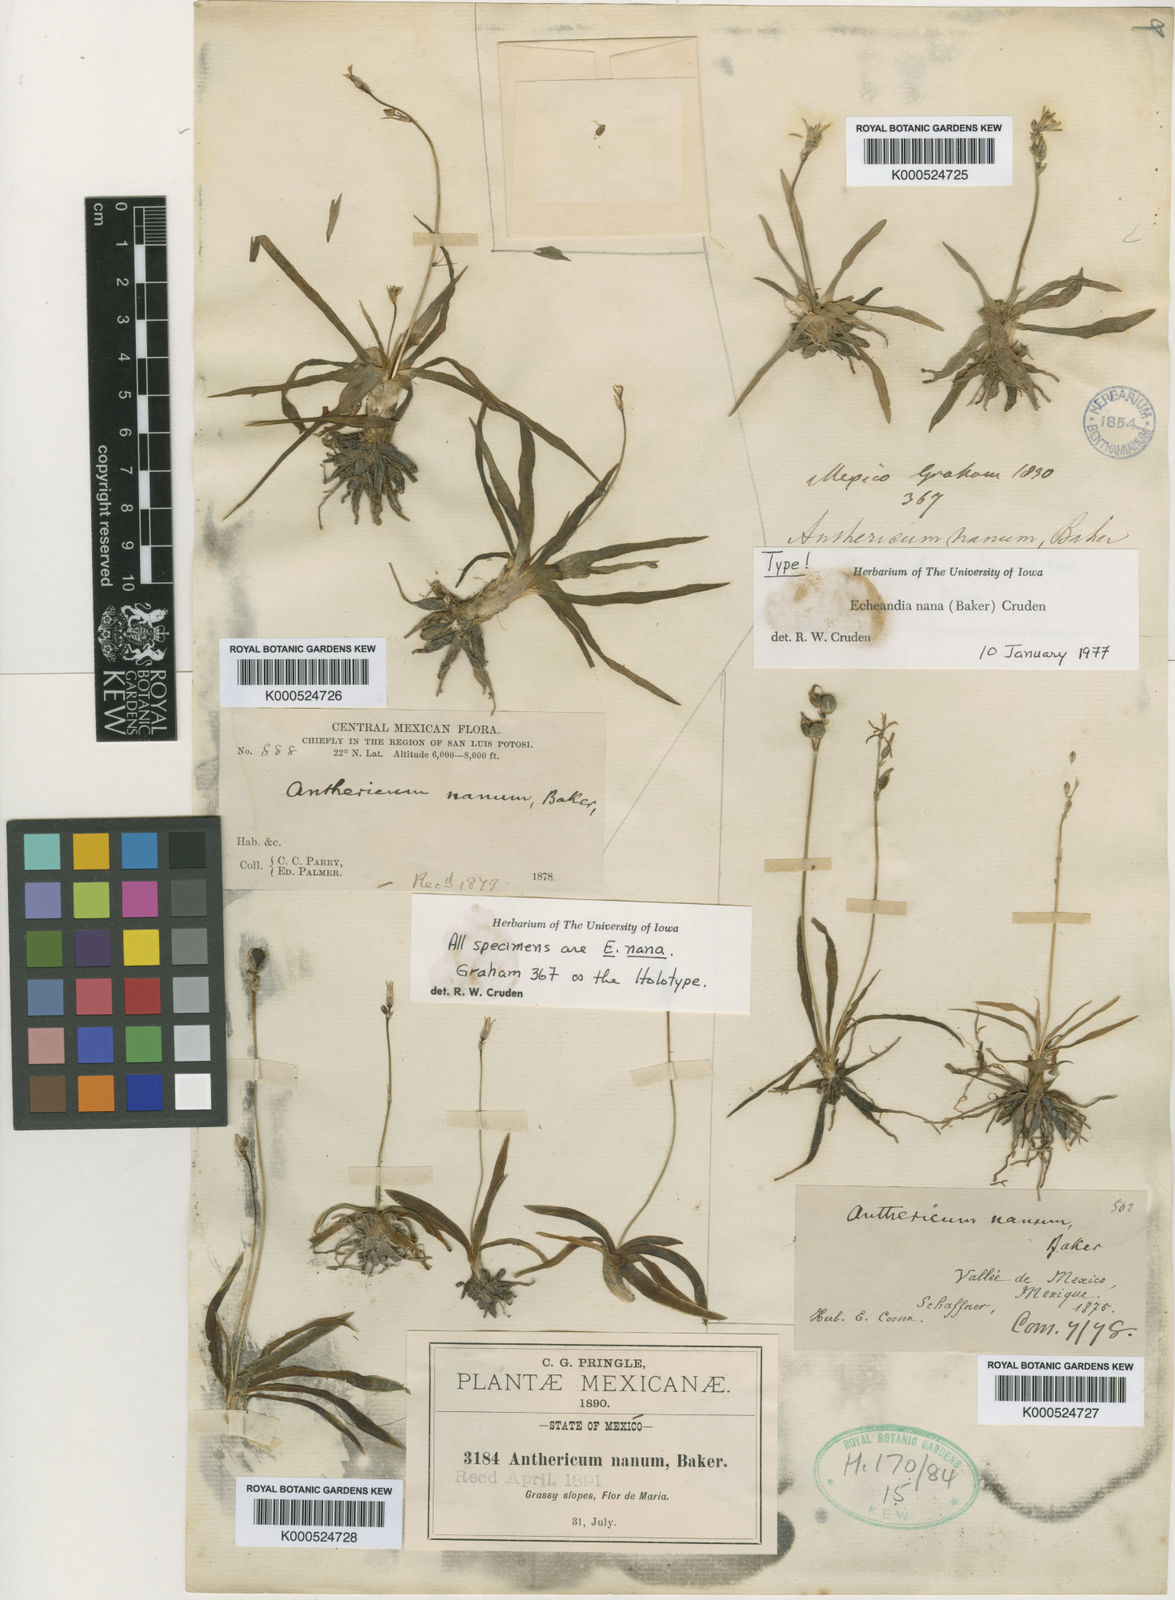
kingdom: Plantae
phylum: Tracheophyta
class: Liliopsida
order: Asparagales
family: Asparagaceae
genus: Echeandia
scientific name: Echeandia nana
